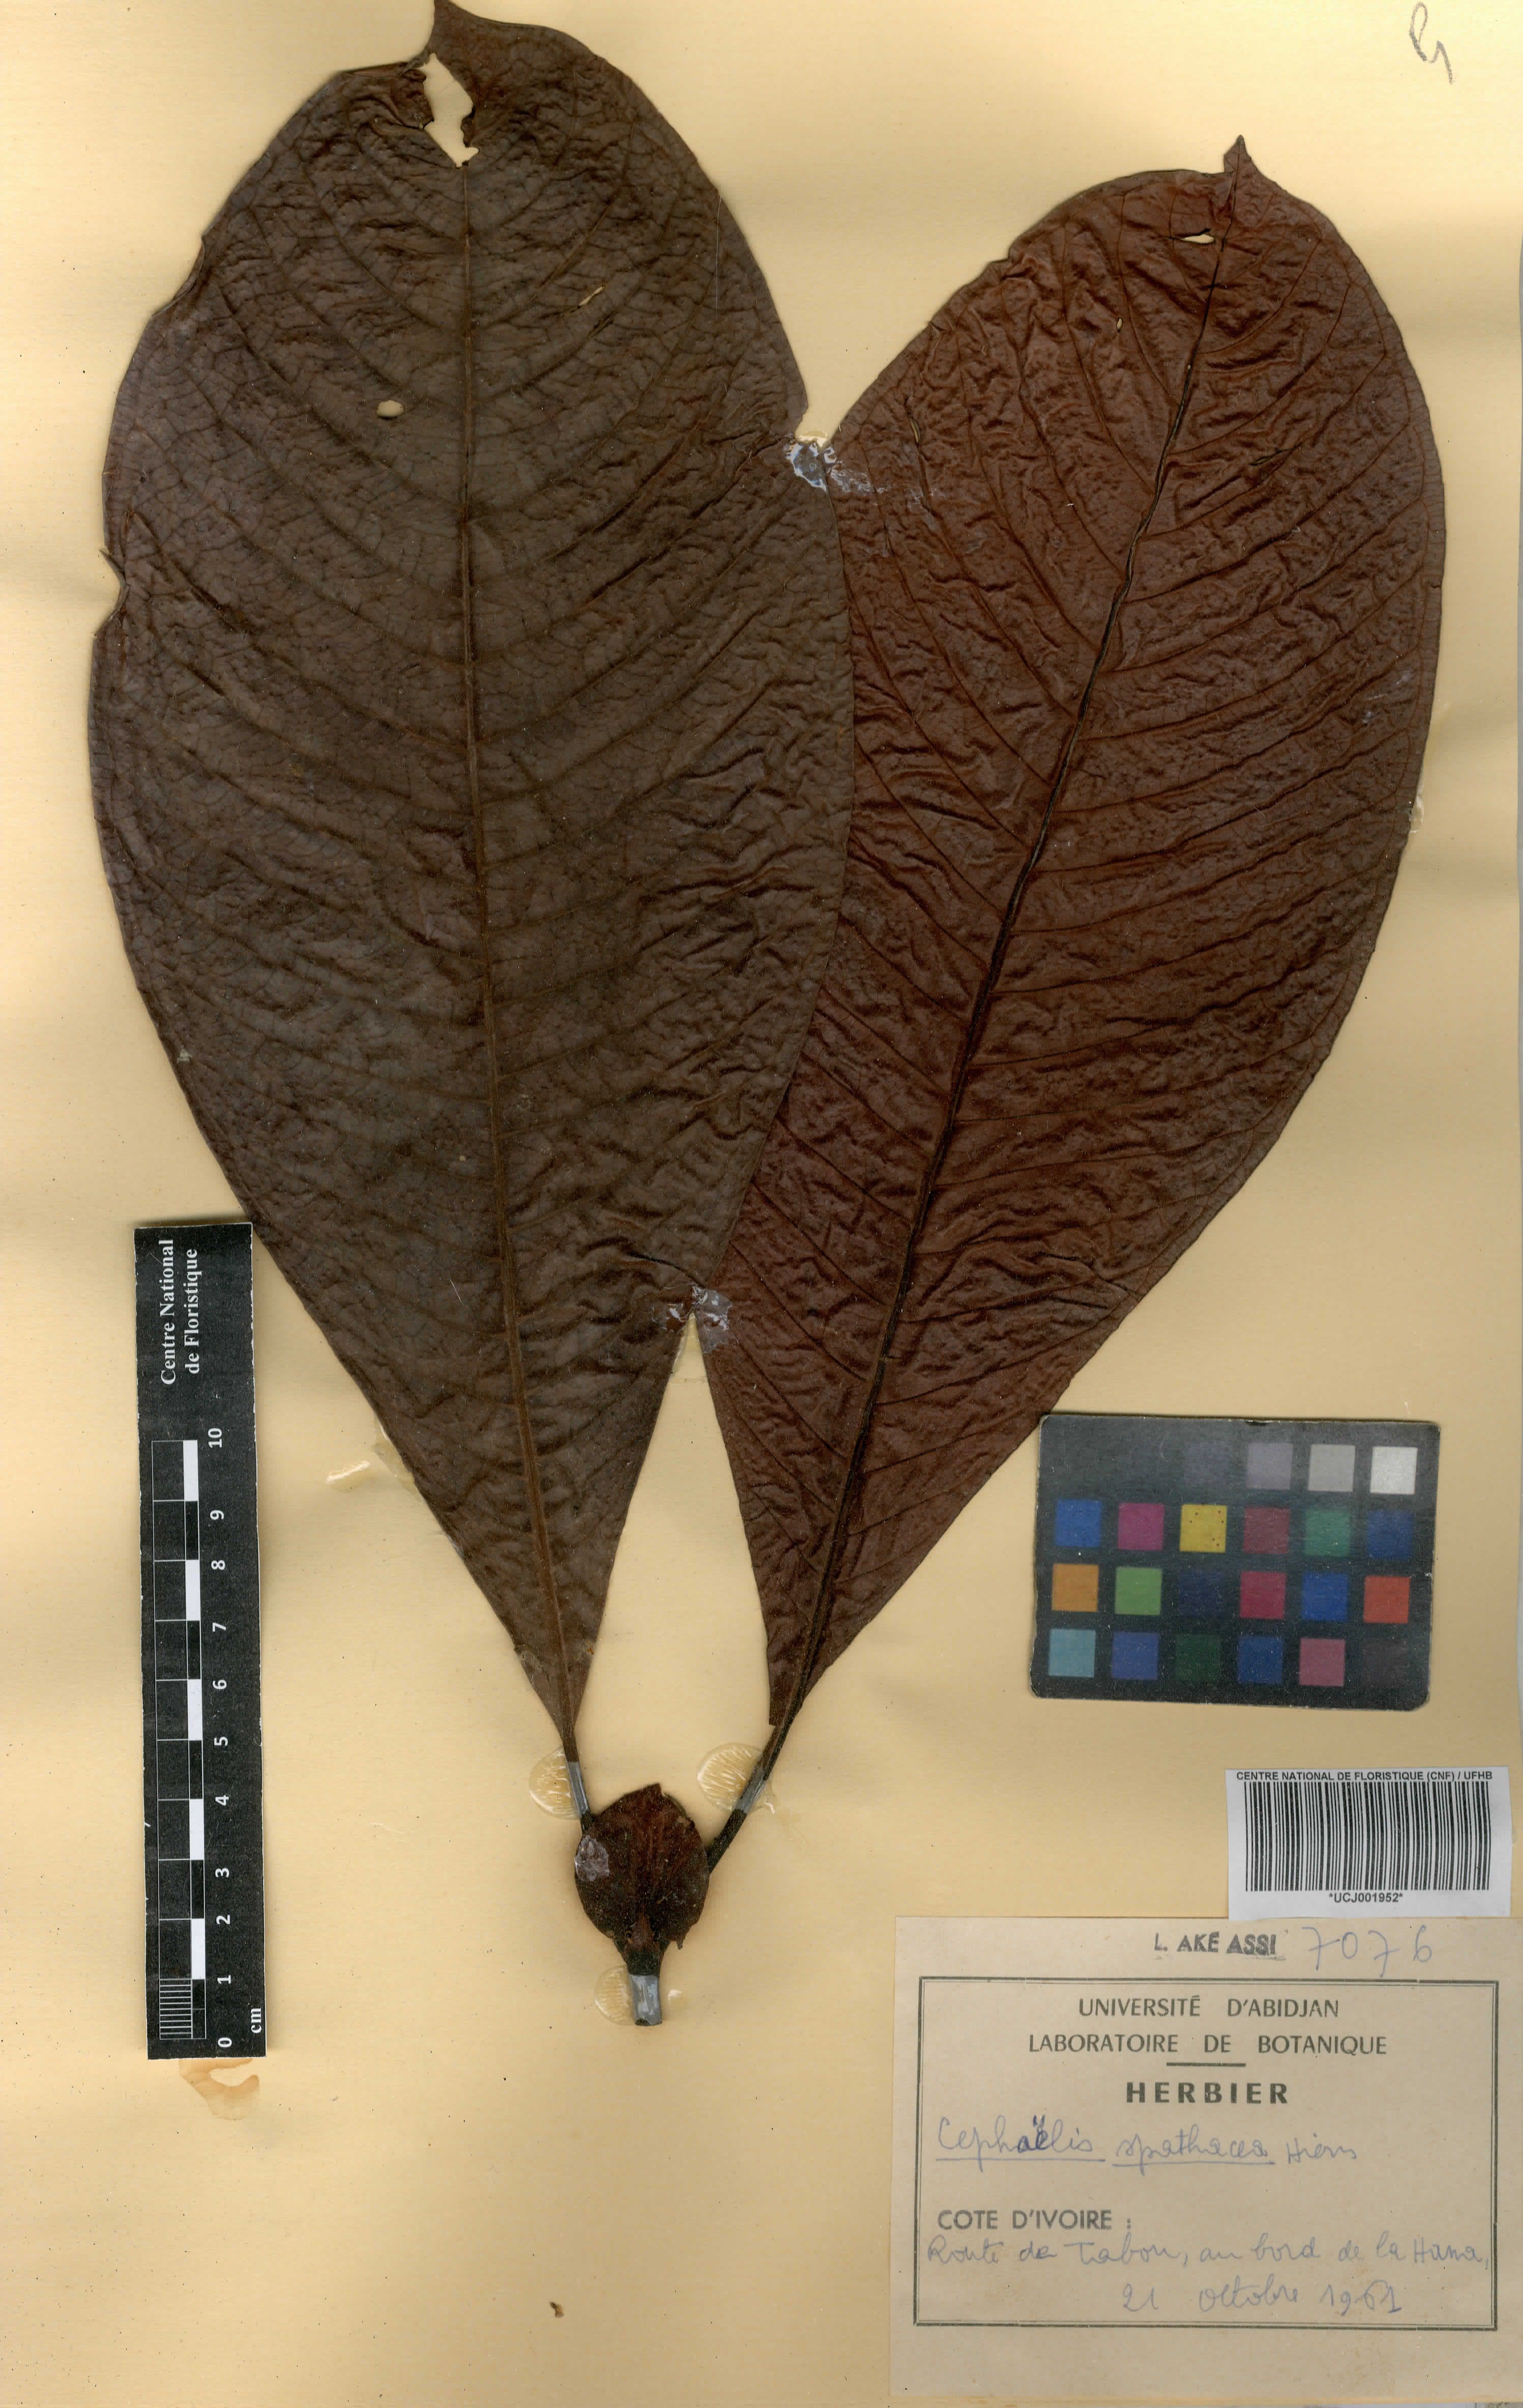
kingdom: Plantae
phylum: Tracheophyta
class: Magnoliopsida
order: Gentianales
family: Rubiaceae
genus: Psychotria
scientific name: Psychotria spathacea
